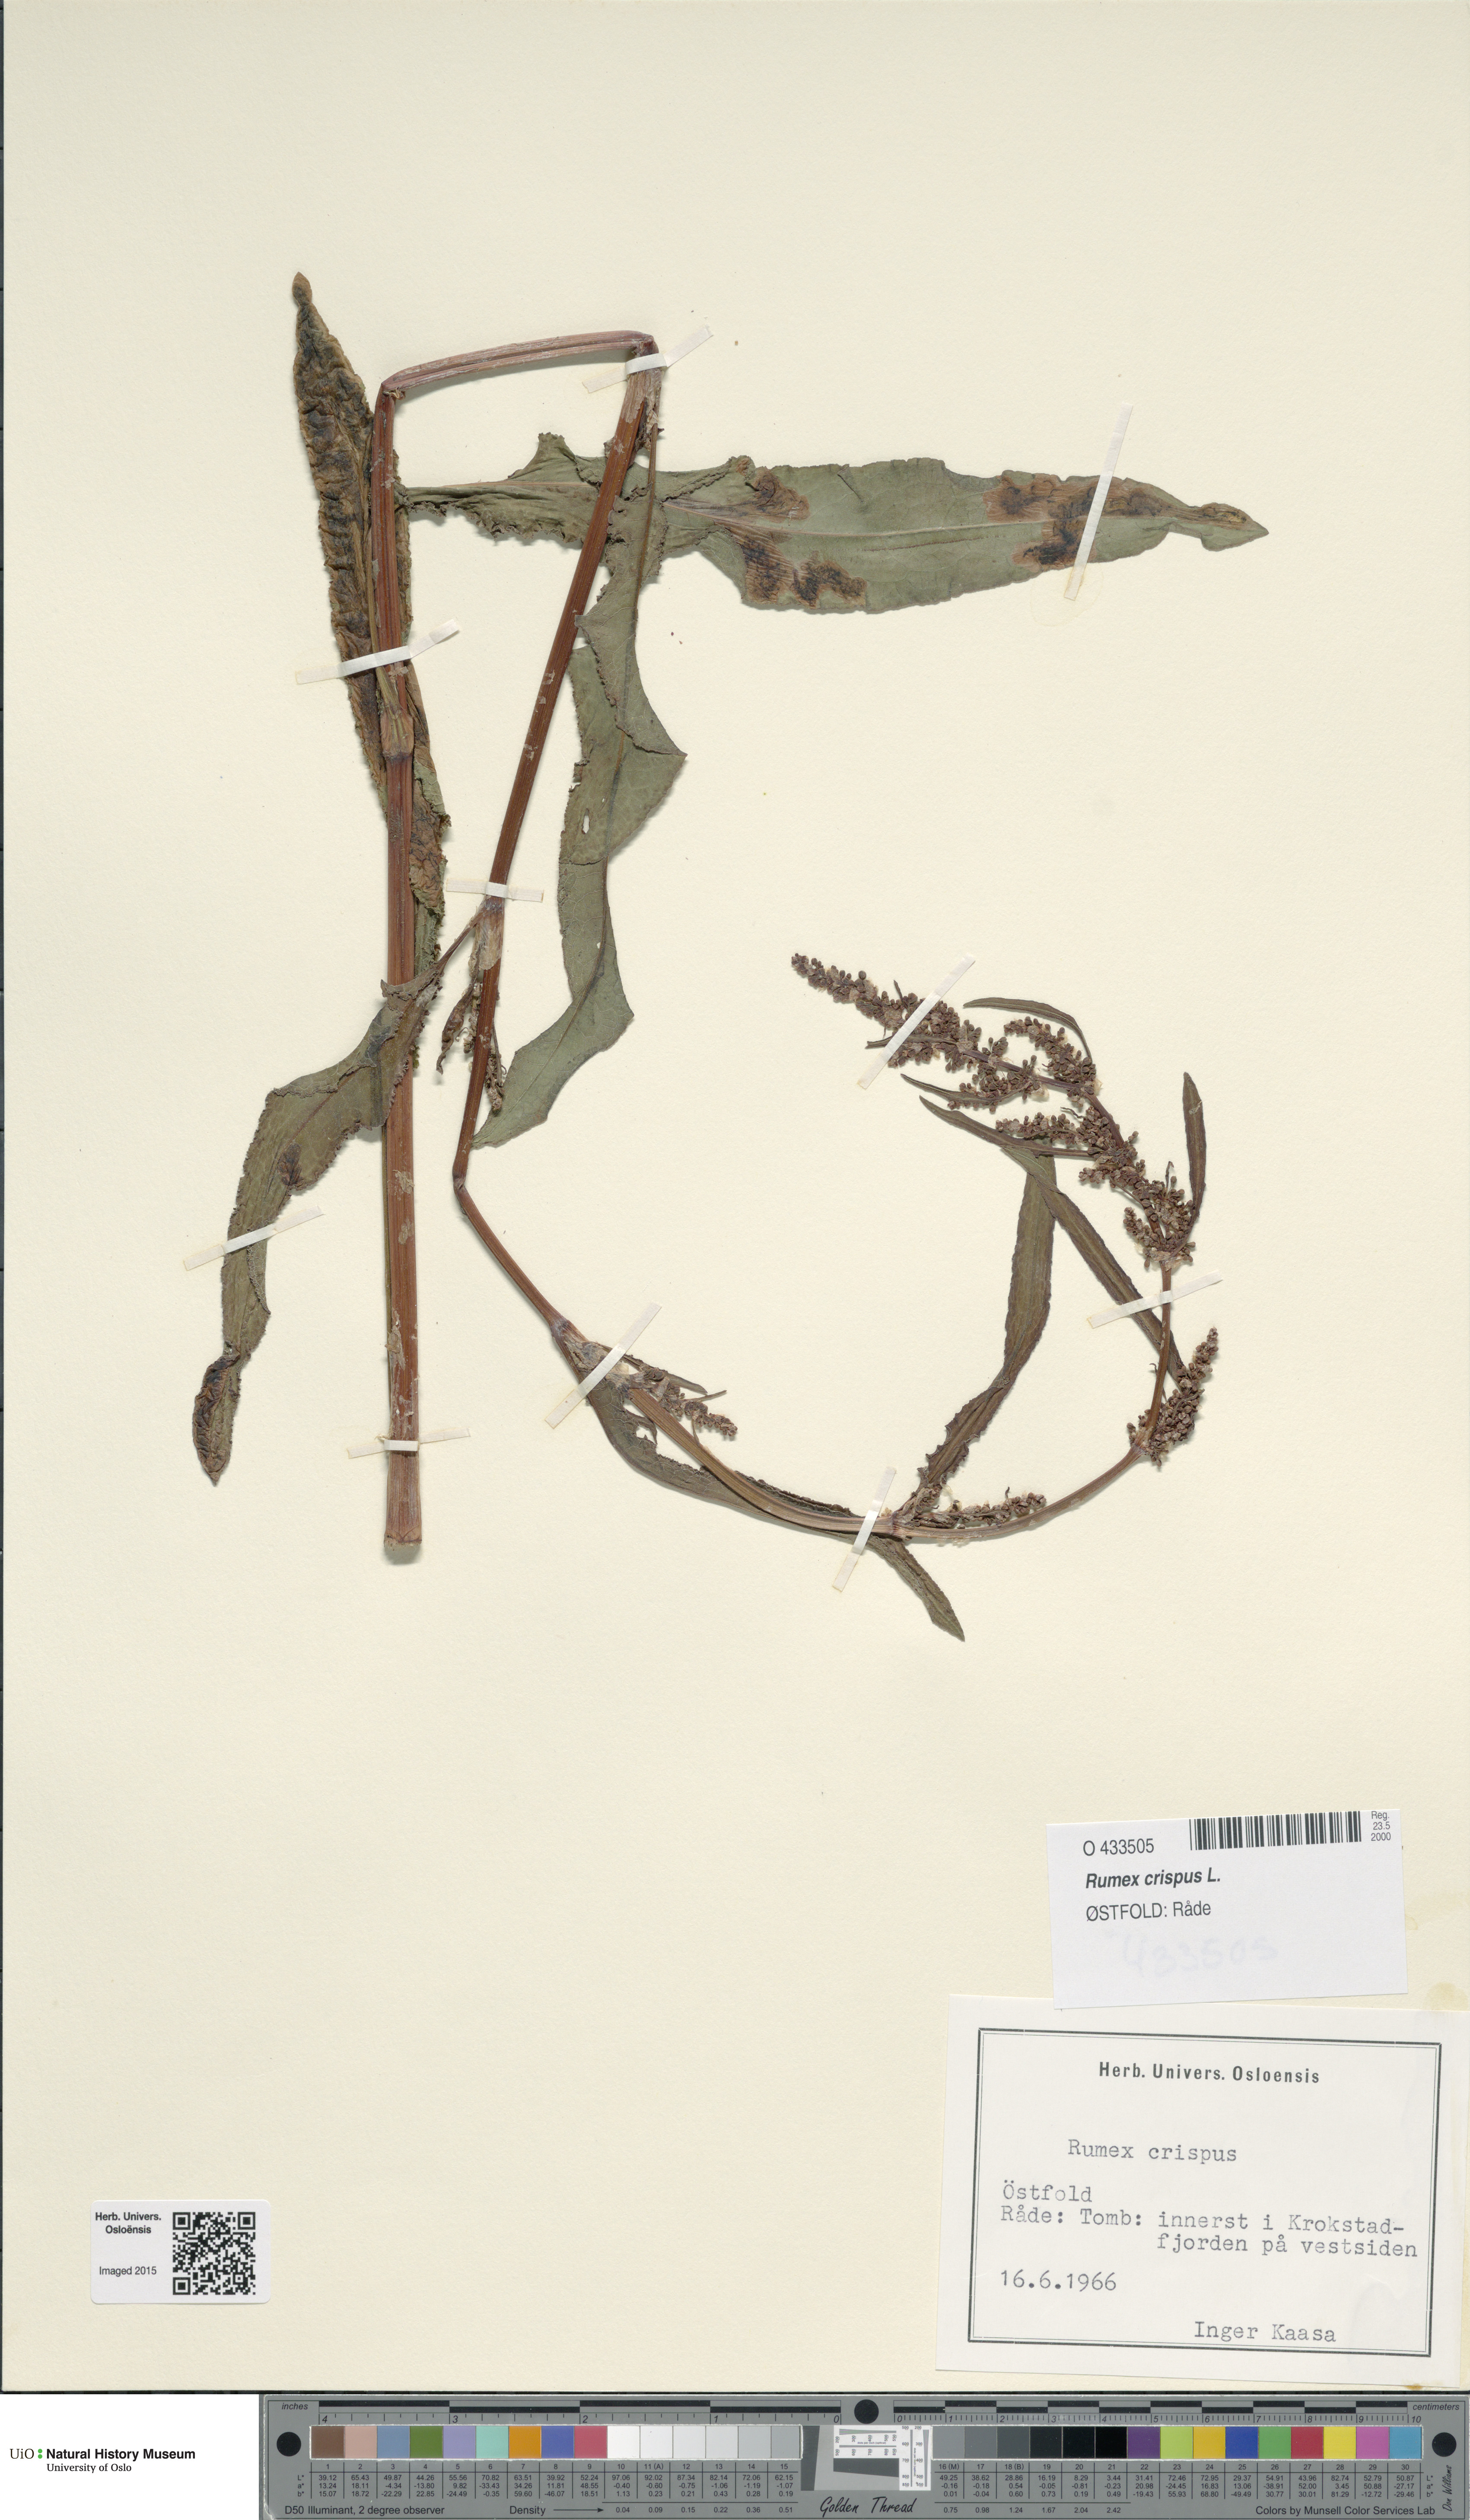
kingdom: Plantae
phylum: Tracheophyta
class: Magnoliopsida
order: Caryophyllales
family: Polygonaceae
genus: Rumex
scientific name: Rumex crispus
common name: Curled dock
